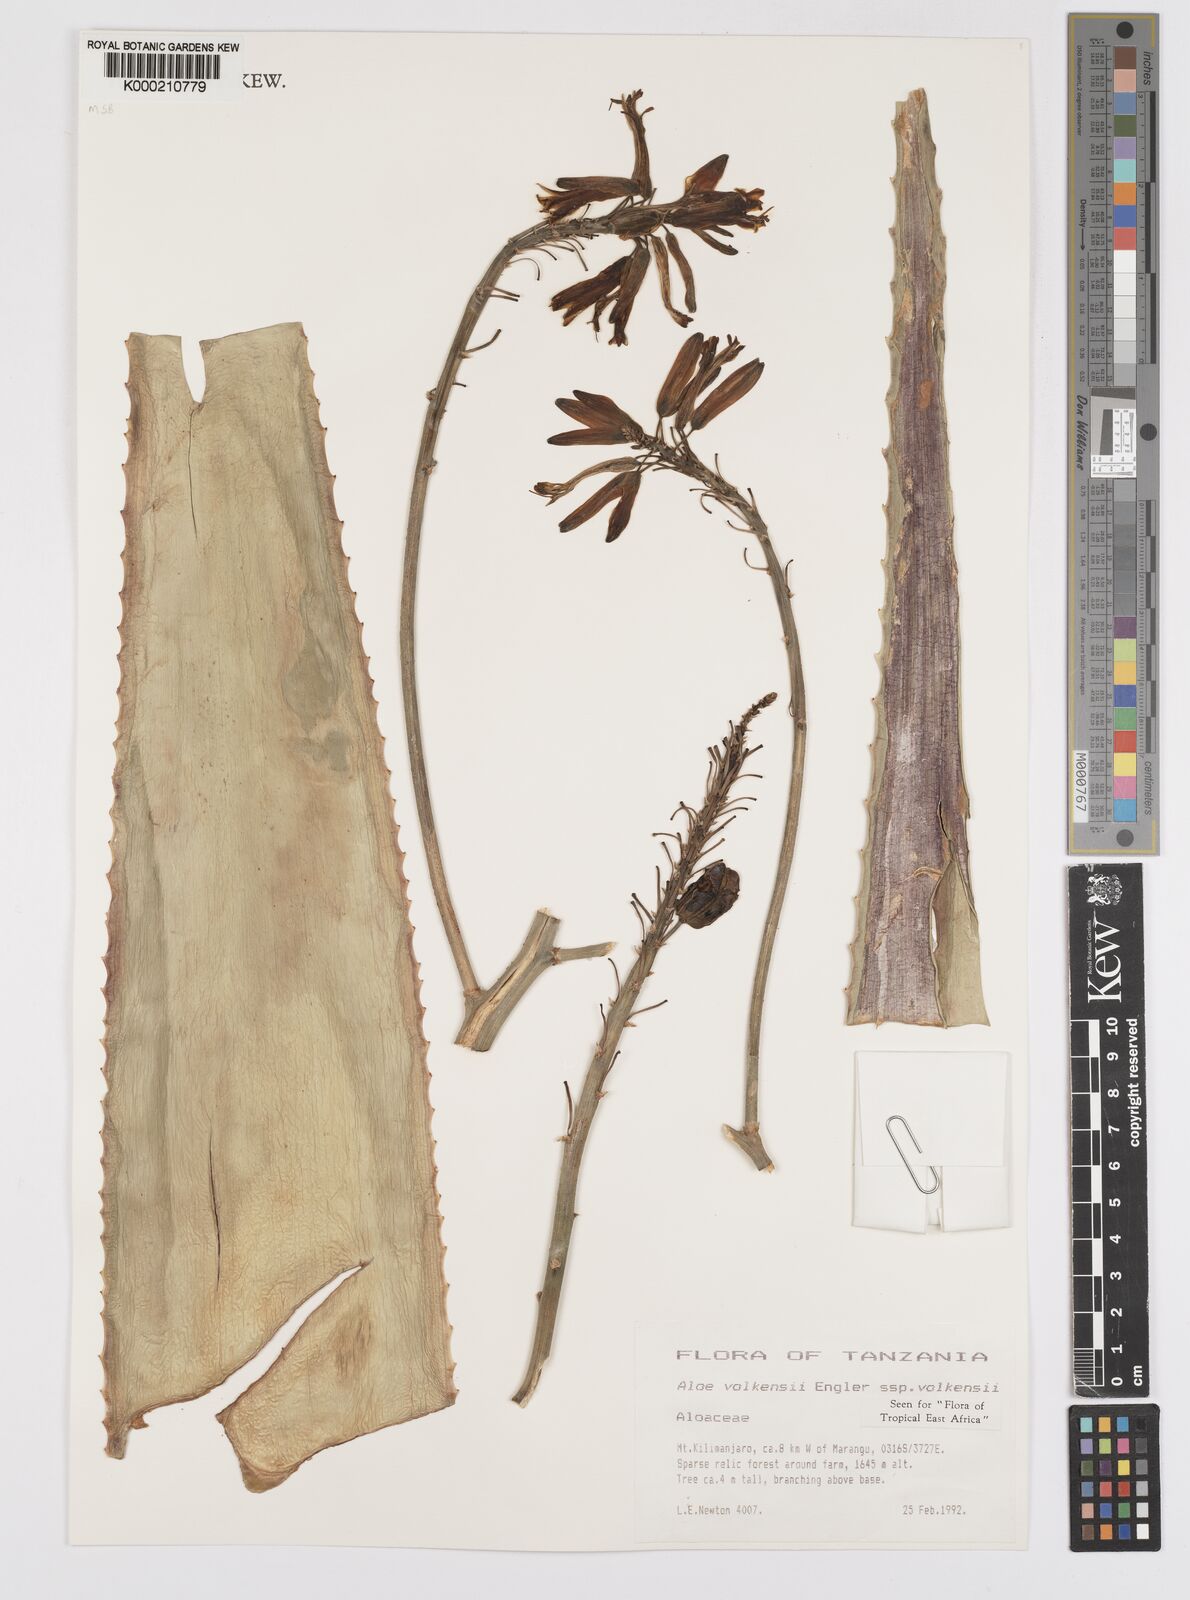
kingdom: Plantae
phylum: Tracheophyta
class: Liliopsida
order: Asparagales
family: Asphodelaceae
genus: Aloe
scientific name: Aloe volkensii
